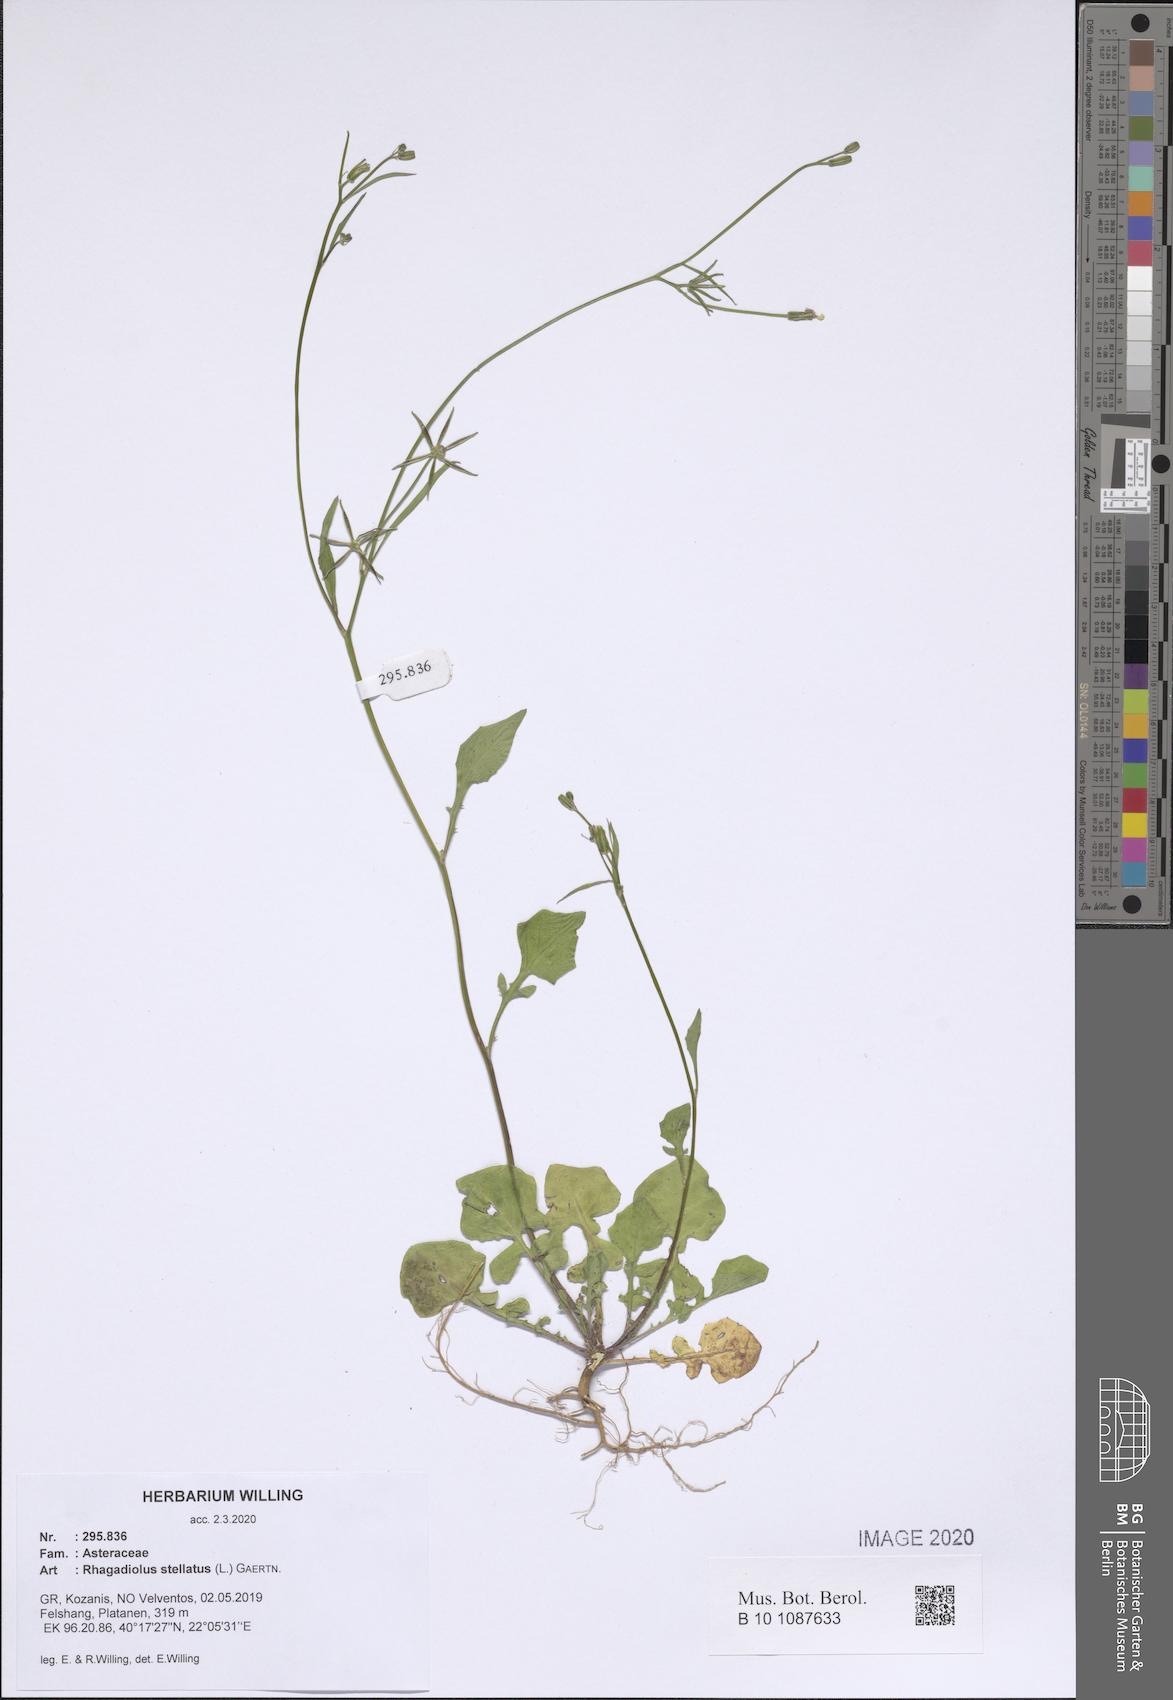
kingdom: Plantae
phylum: Tracheophyta
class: Magnoliopsida
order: Asterales
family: Asteraceae
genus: Rhagadiolus
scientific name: Rhagadiolus stellatus
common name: Star hawkbit
